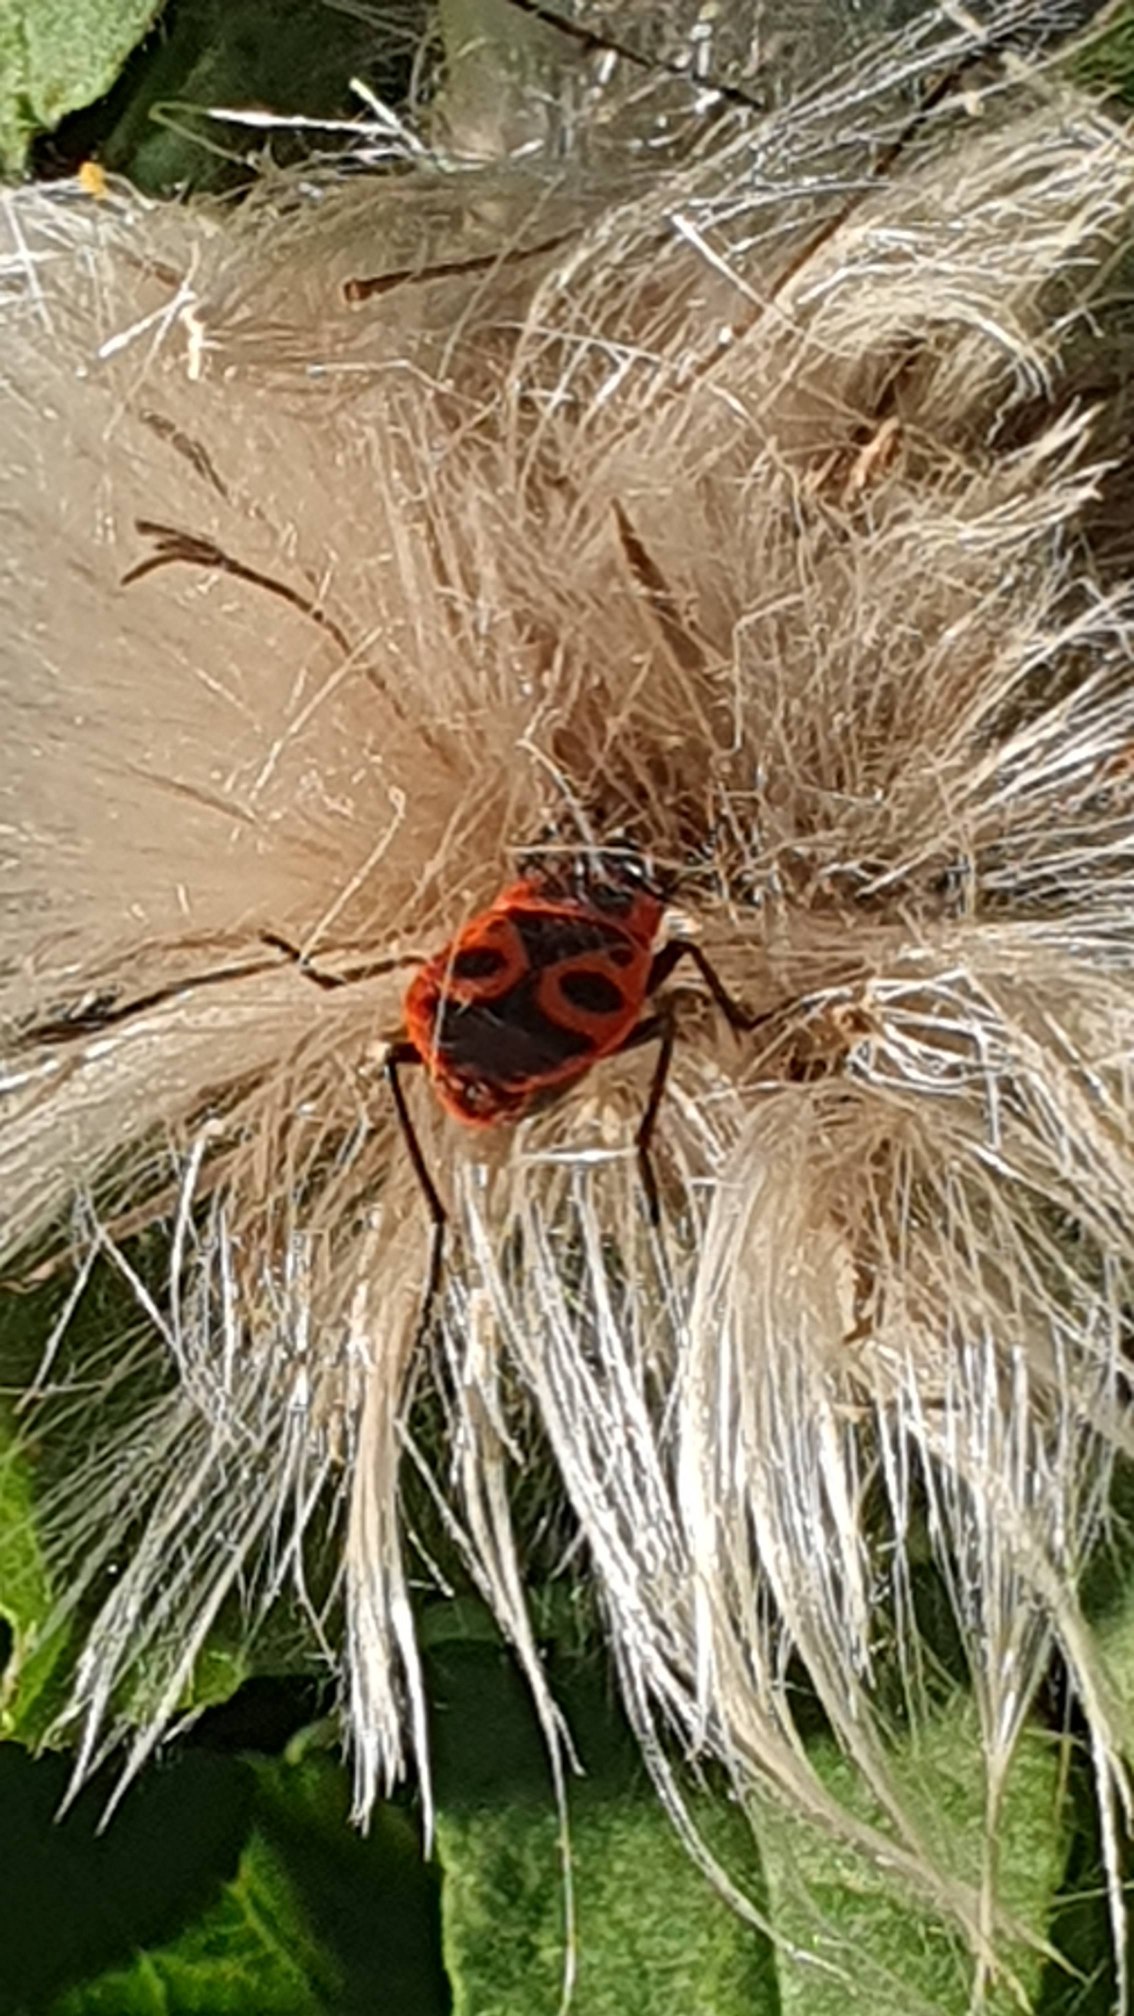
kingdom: Animalia
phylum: Arthropoda
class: Insecta
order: Hemiptera
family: Pyrrhocoridae
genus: Pyrrhocoris
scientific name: Pyrrhocoris apterus
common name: Ildtæge
